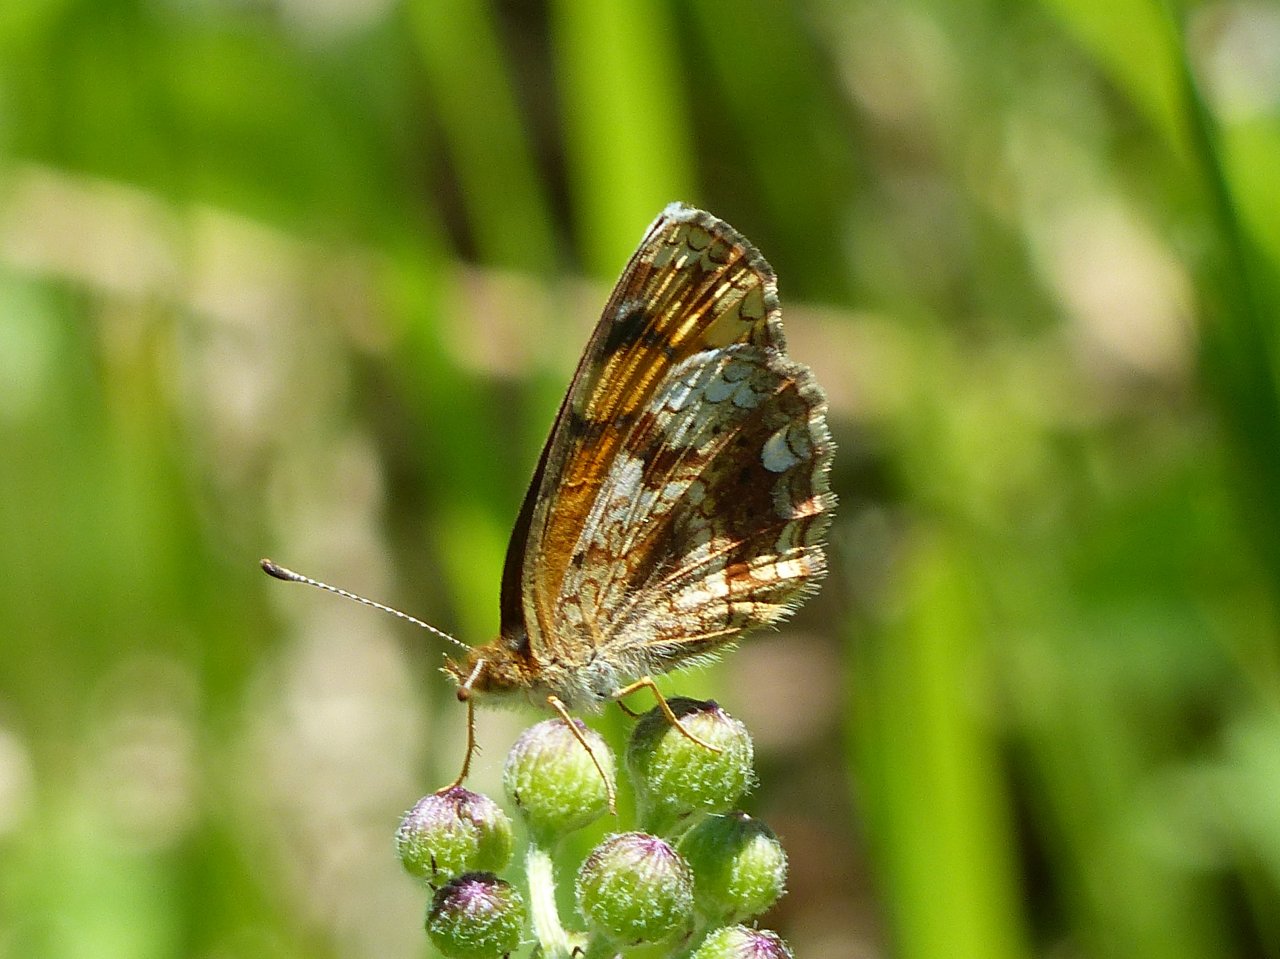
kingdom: Animalia
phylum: Arthropoda
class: Insecta
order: Lepidoptera
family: Nymphalidae
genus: Phyciodes
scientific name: Phyciodes tharos
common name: Northern Crescent
